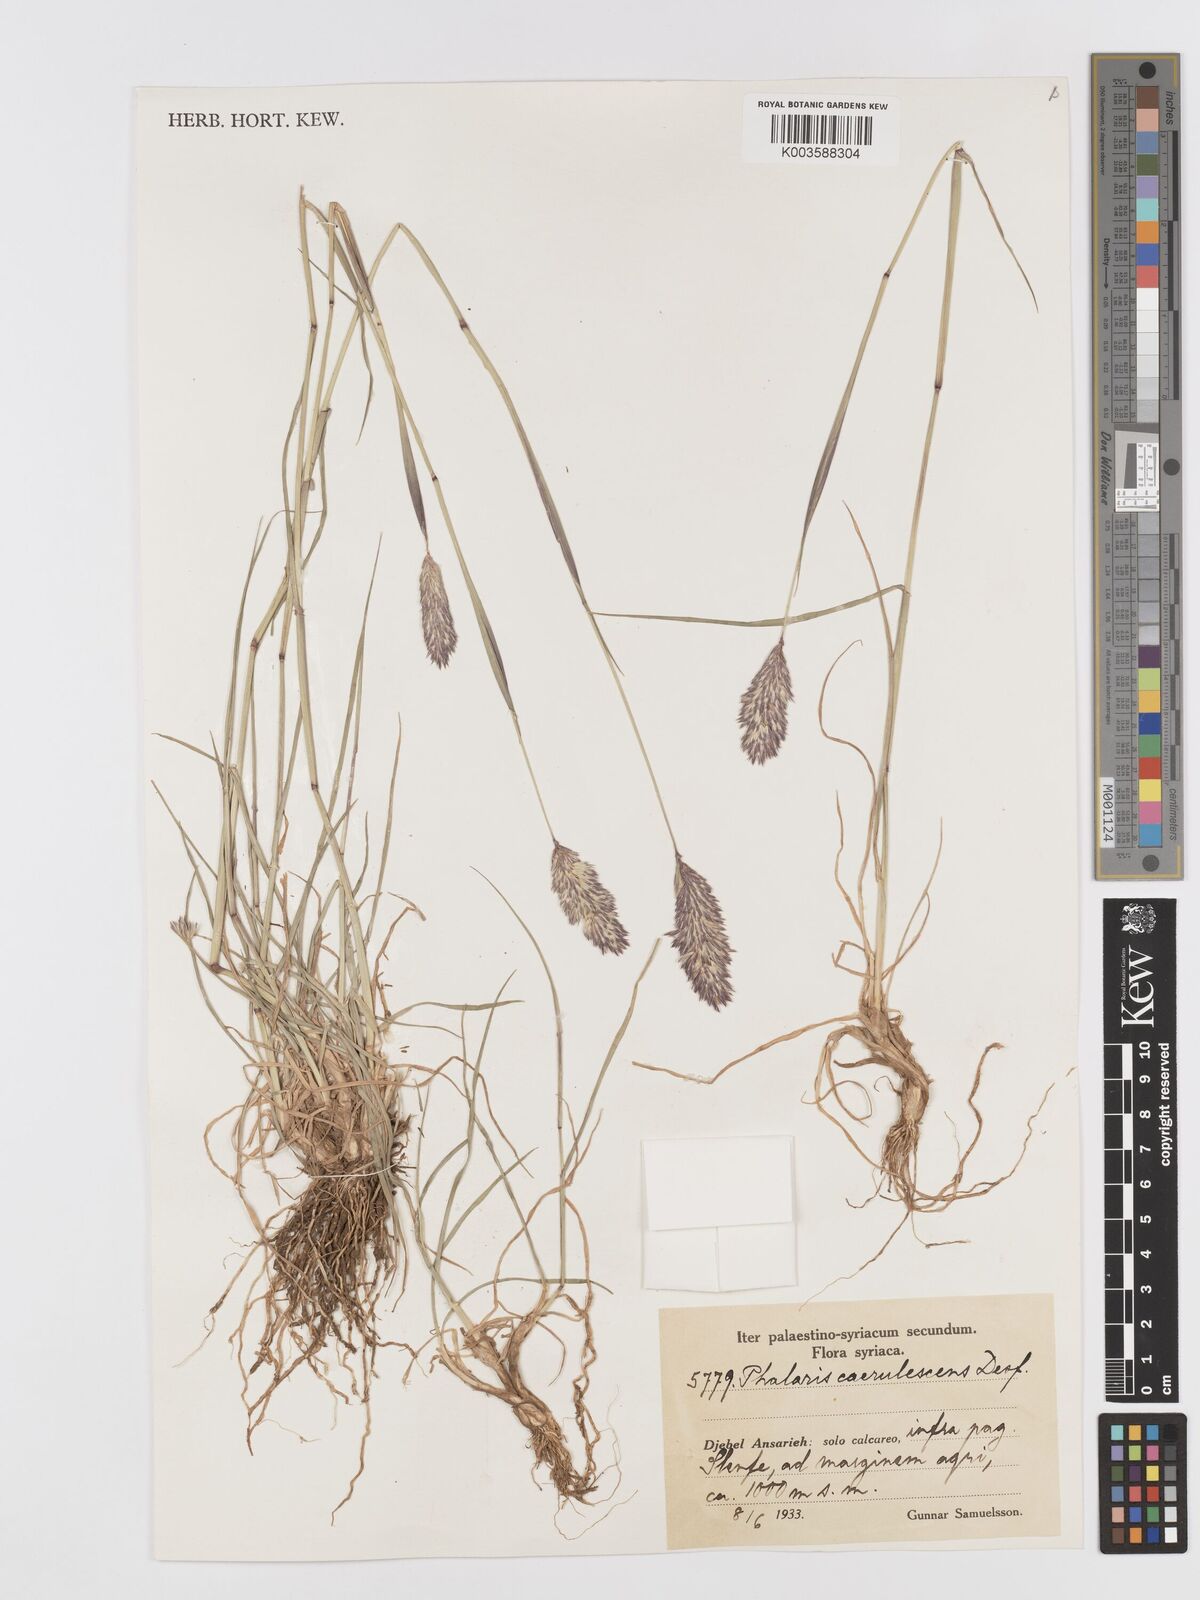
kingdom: Plantae
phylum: Tracheophyta
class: Liliopsida
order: Poales
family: Poaceae
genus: Phalaris
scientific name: Phalaris coerulescens
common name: Sunolgrass
